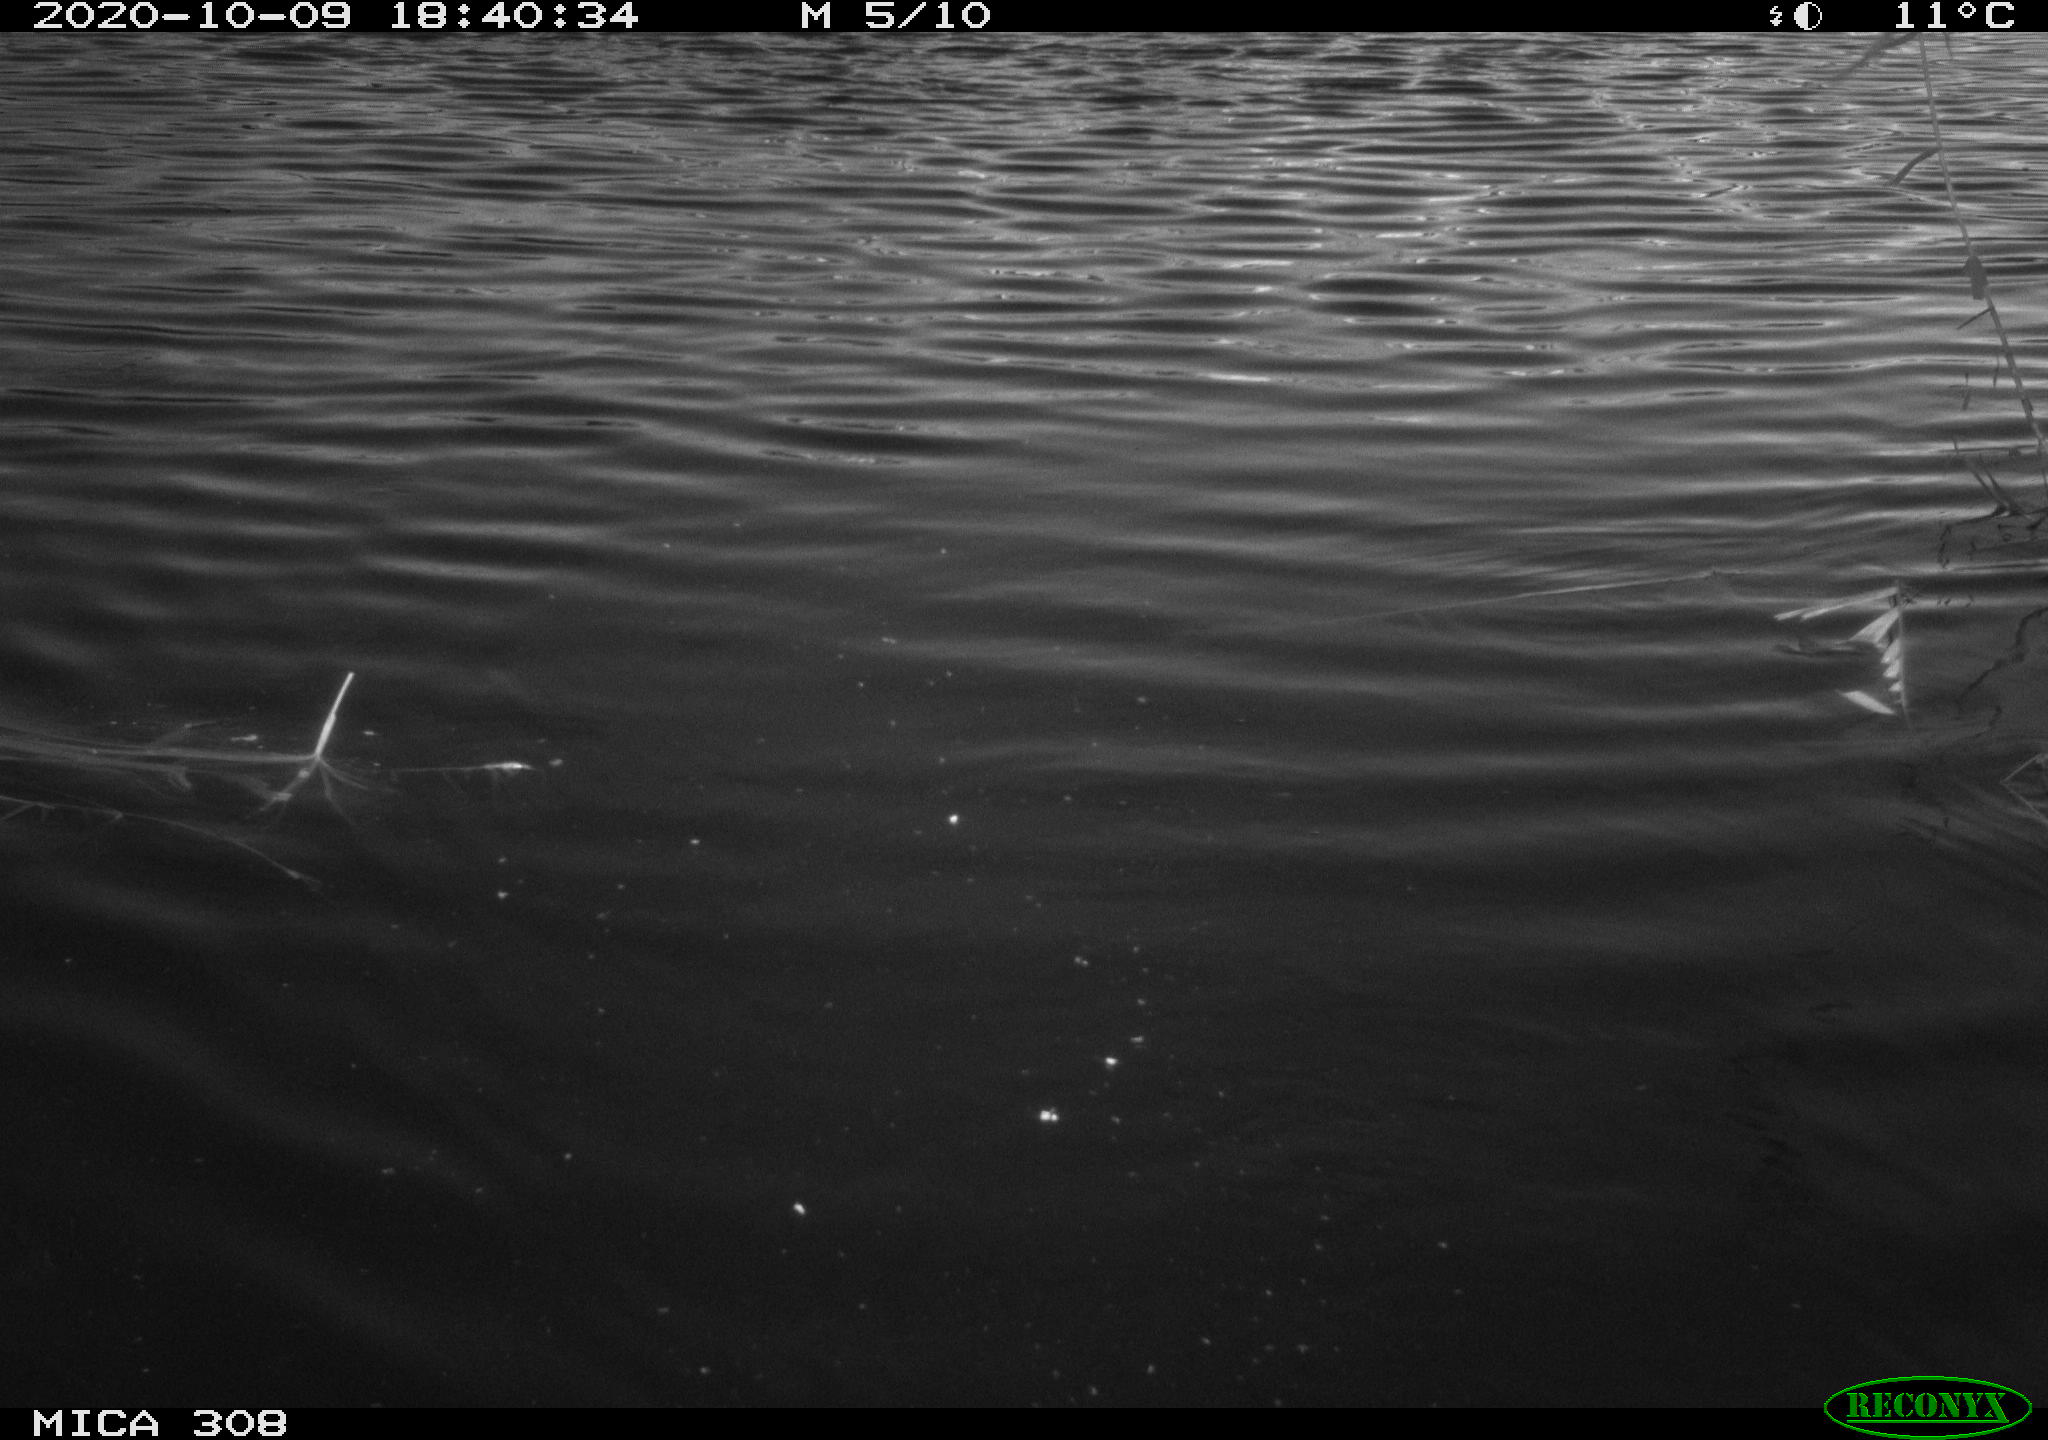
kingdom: Animalia
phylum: Chordata
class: Aves
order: Anseriformes
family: Anatidae
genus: Anas
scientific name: Anas platyrhynchos
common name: Mallard
